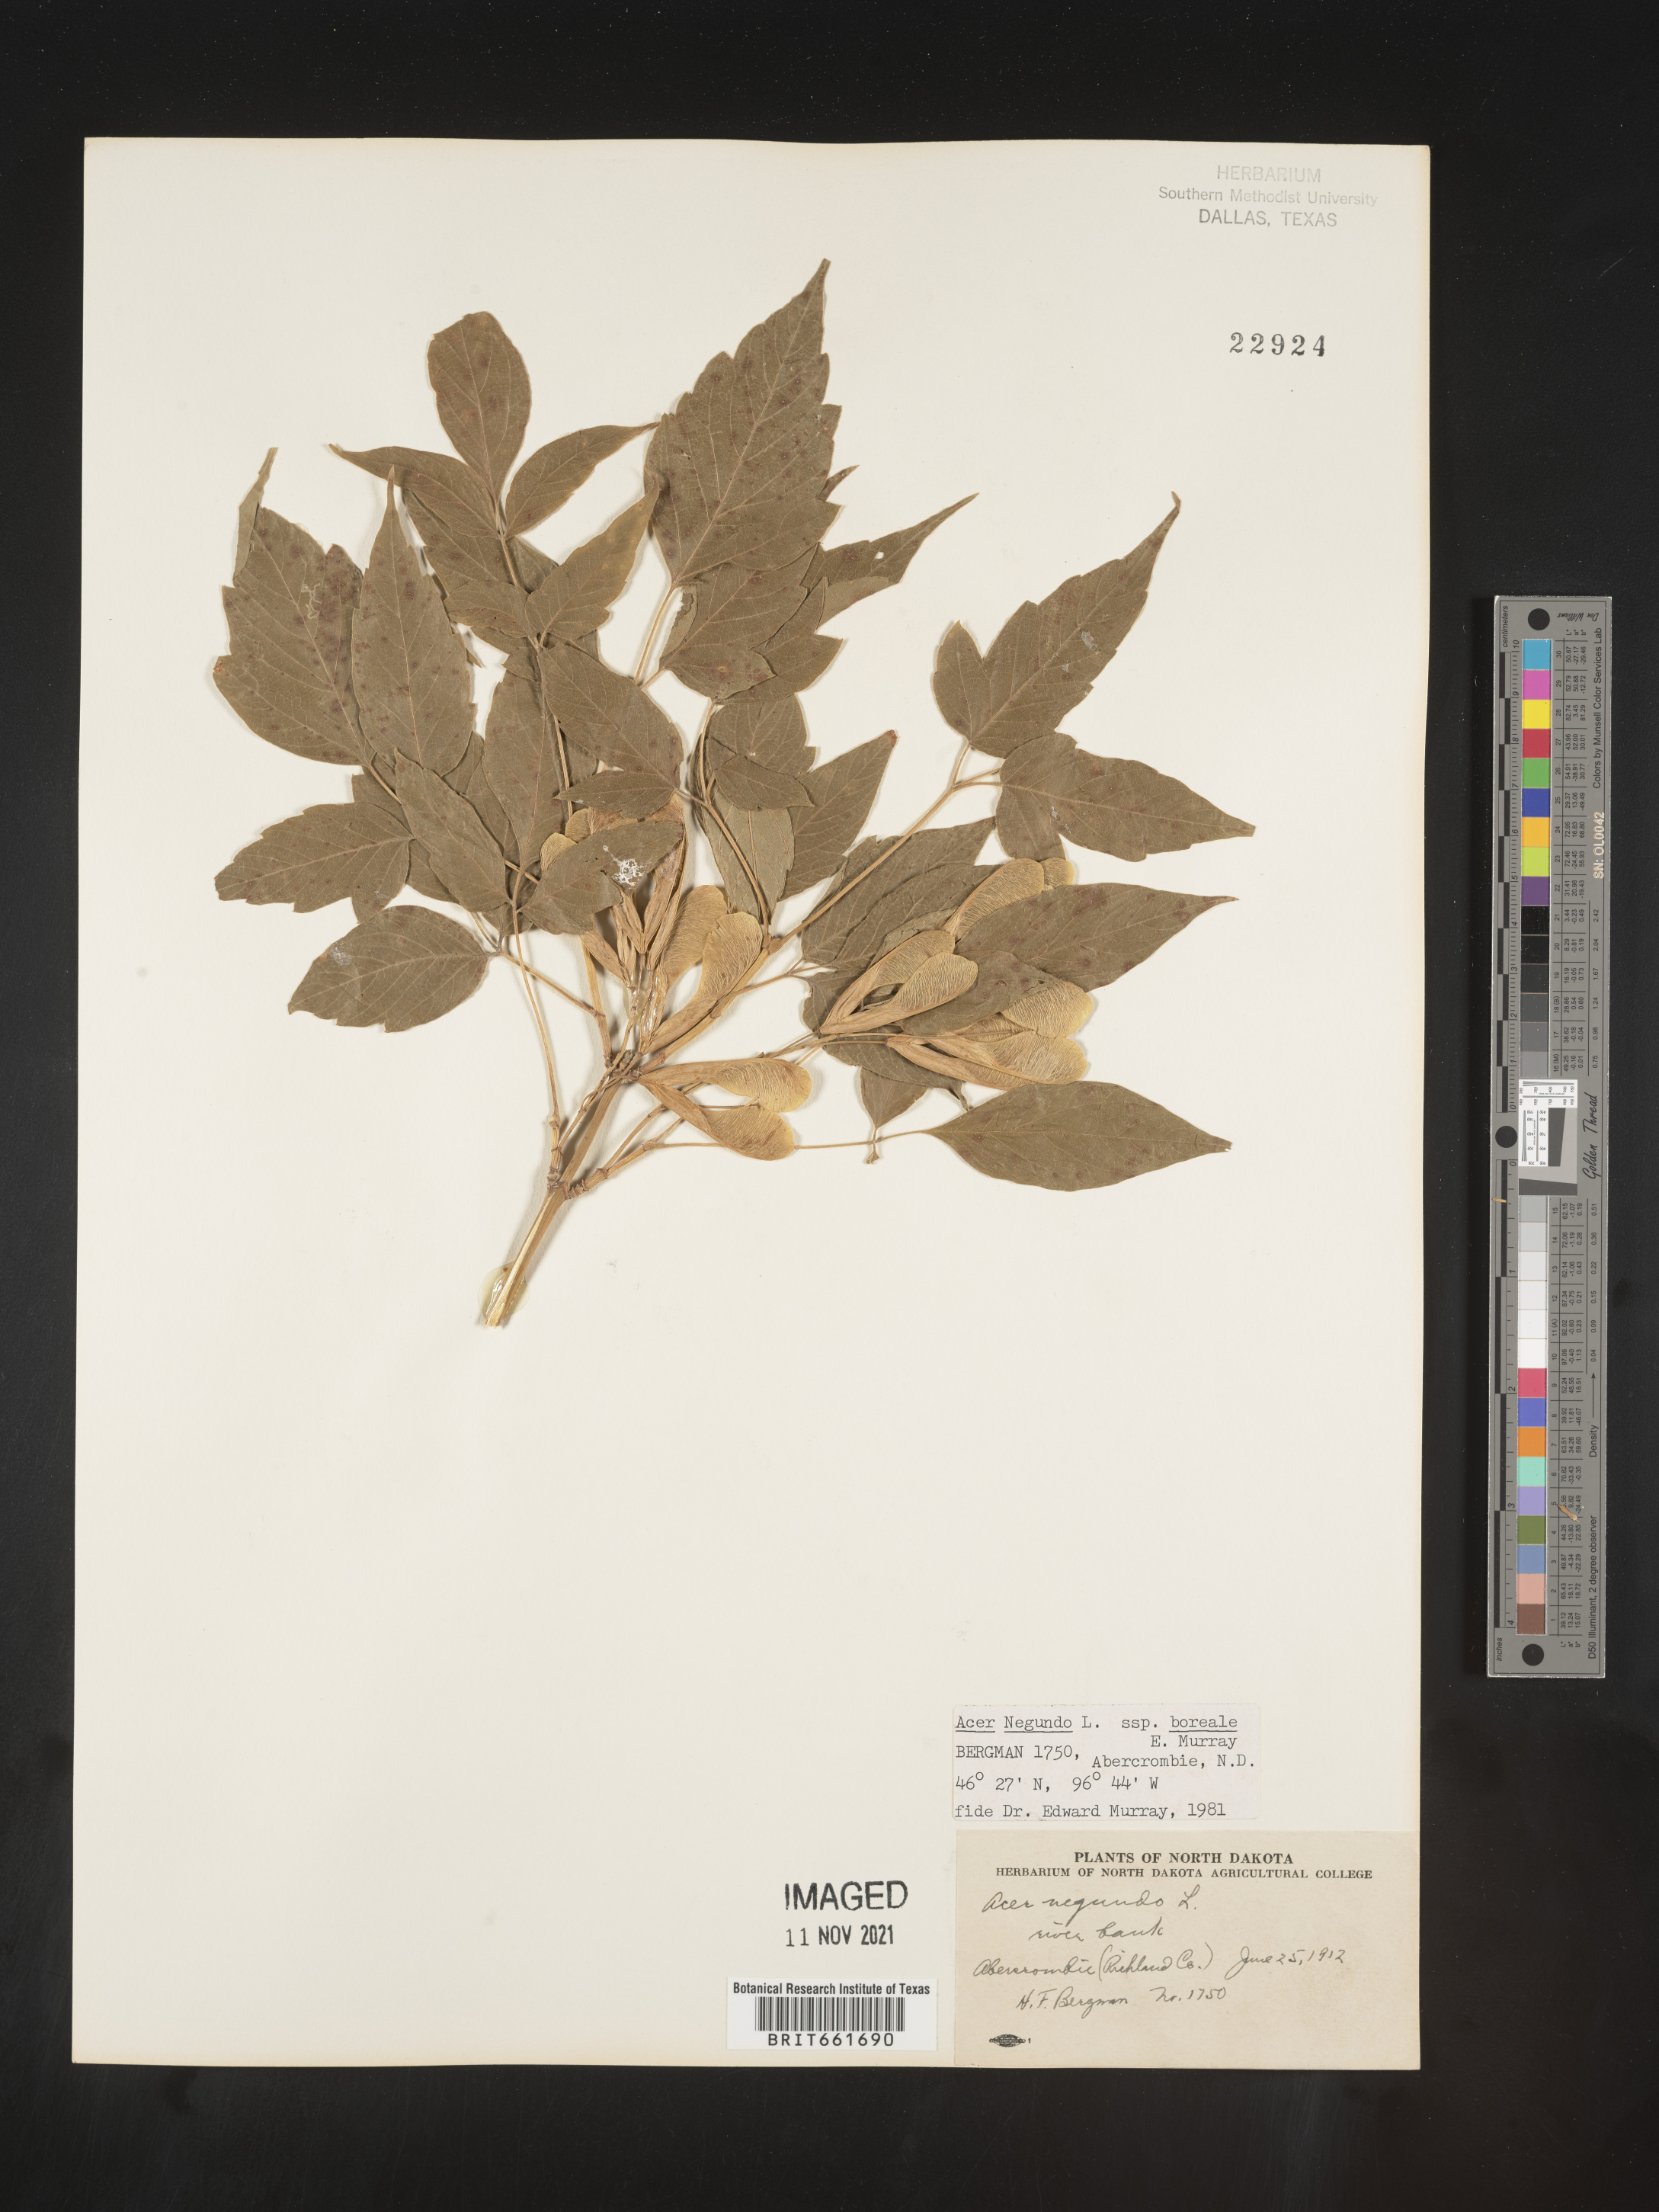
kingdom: Plantae
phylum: Tracheophyta
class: Magnoliopsida
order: Sapindales
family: Sapindaceae
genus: Acer
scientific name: Acer negundo
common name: Ashleaf maple
